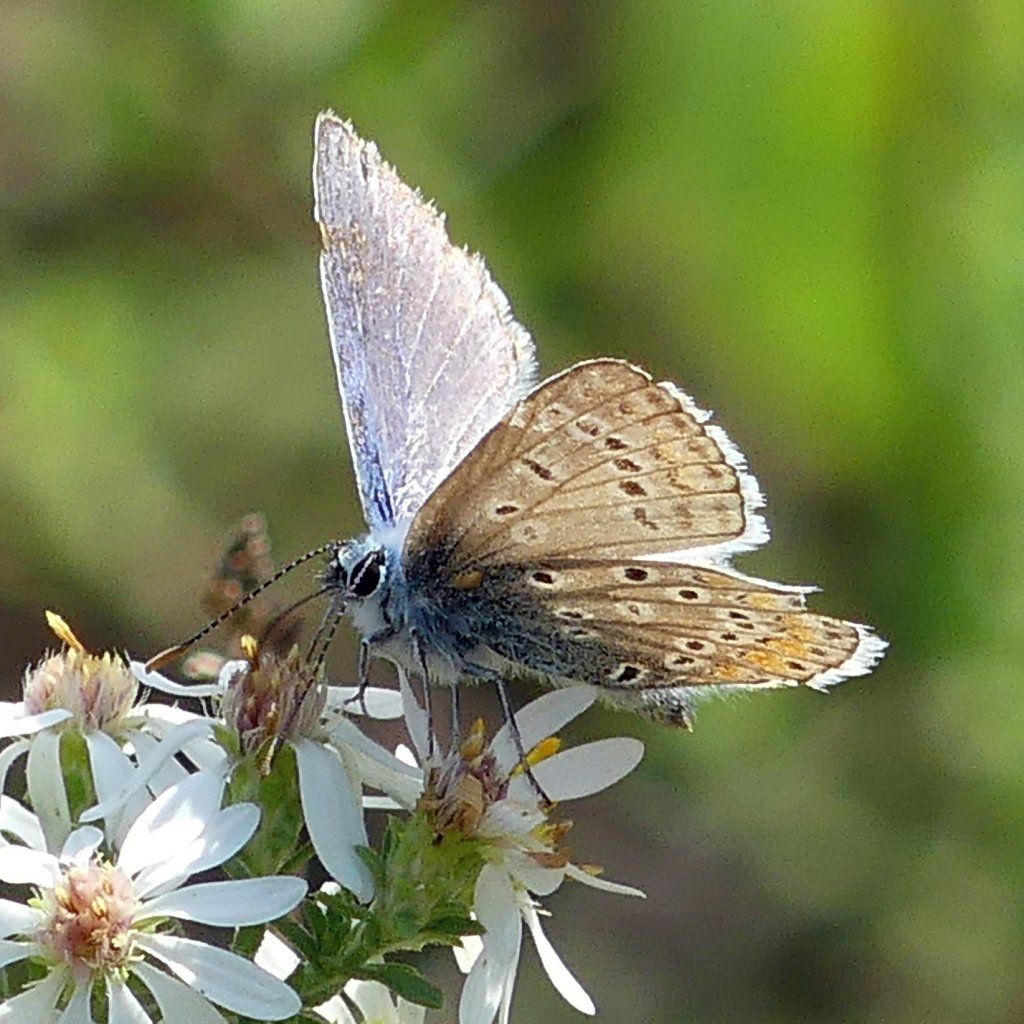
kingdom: Animalia
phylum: Arthropoda
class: Insecta
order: Lepidoptera
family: Lycaenidae
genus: Polyommatus
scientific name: Polyommatus icarus
